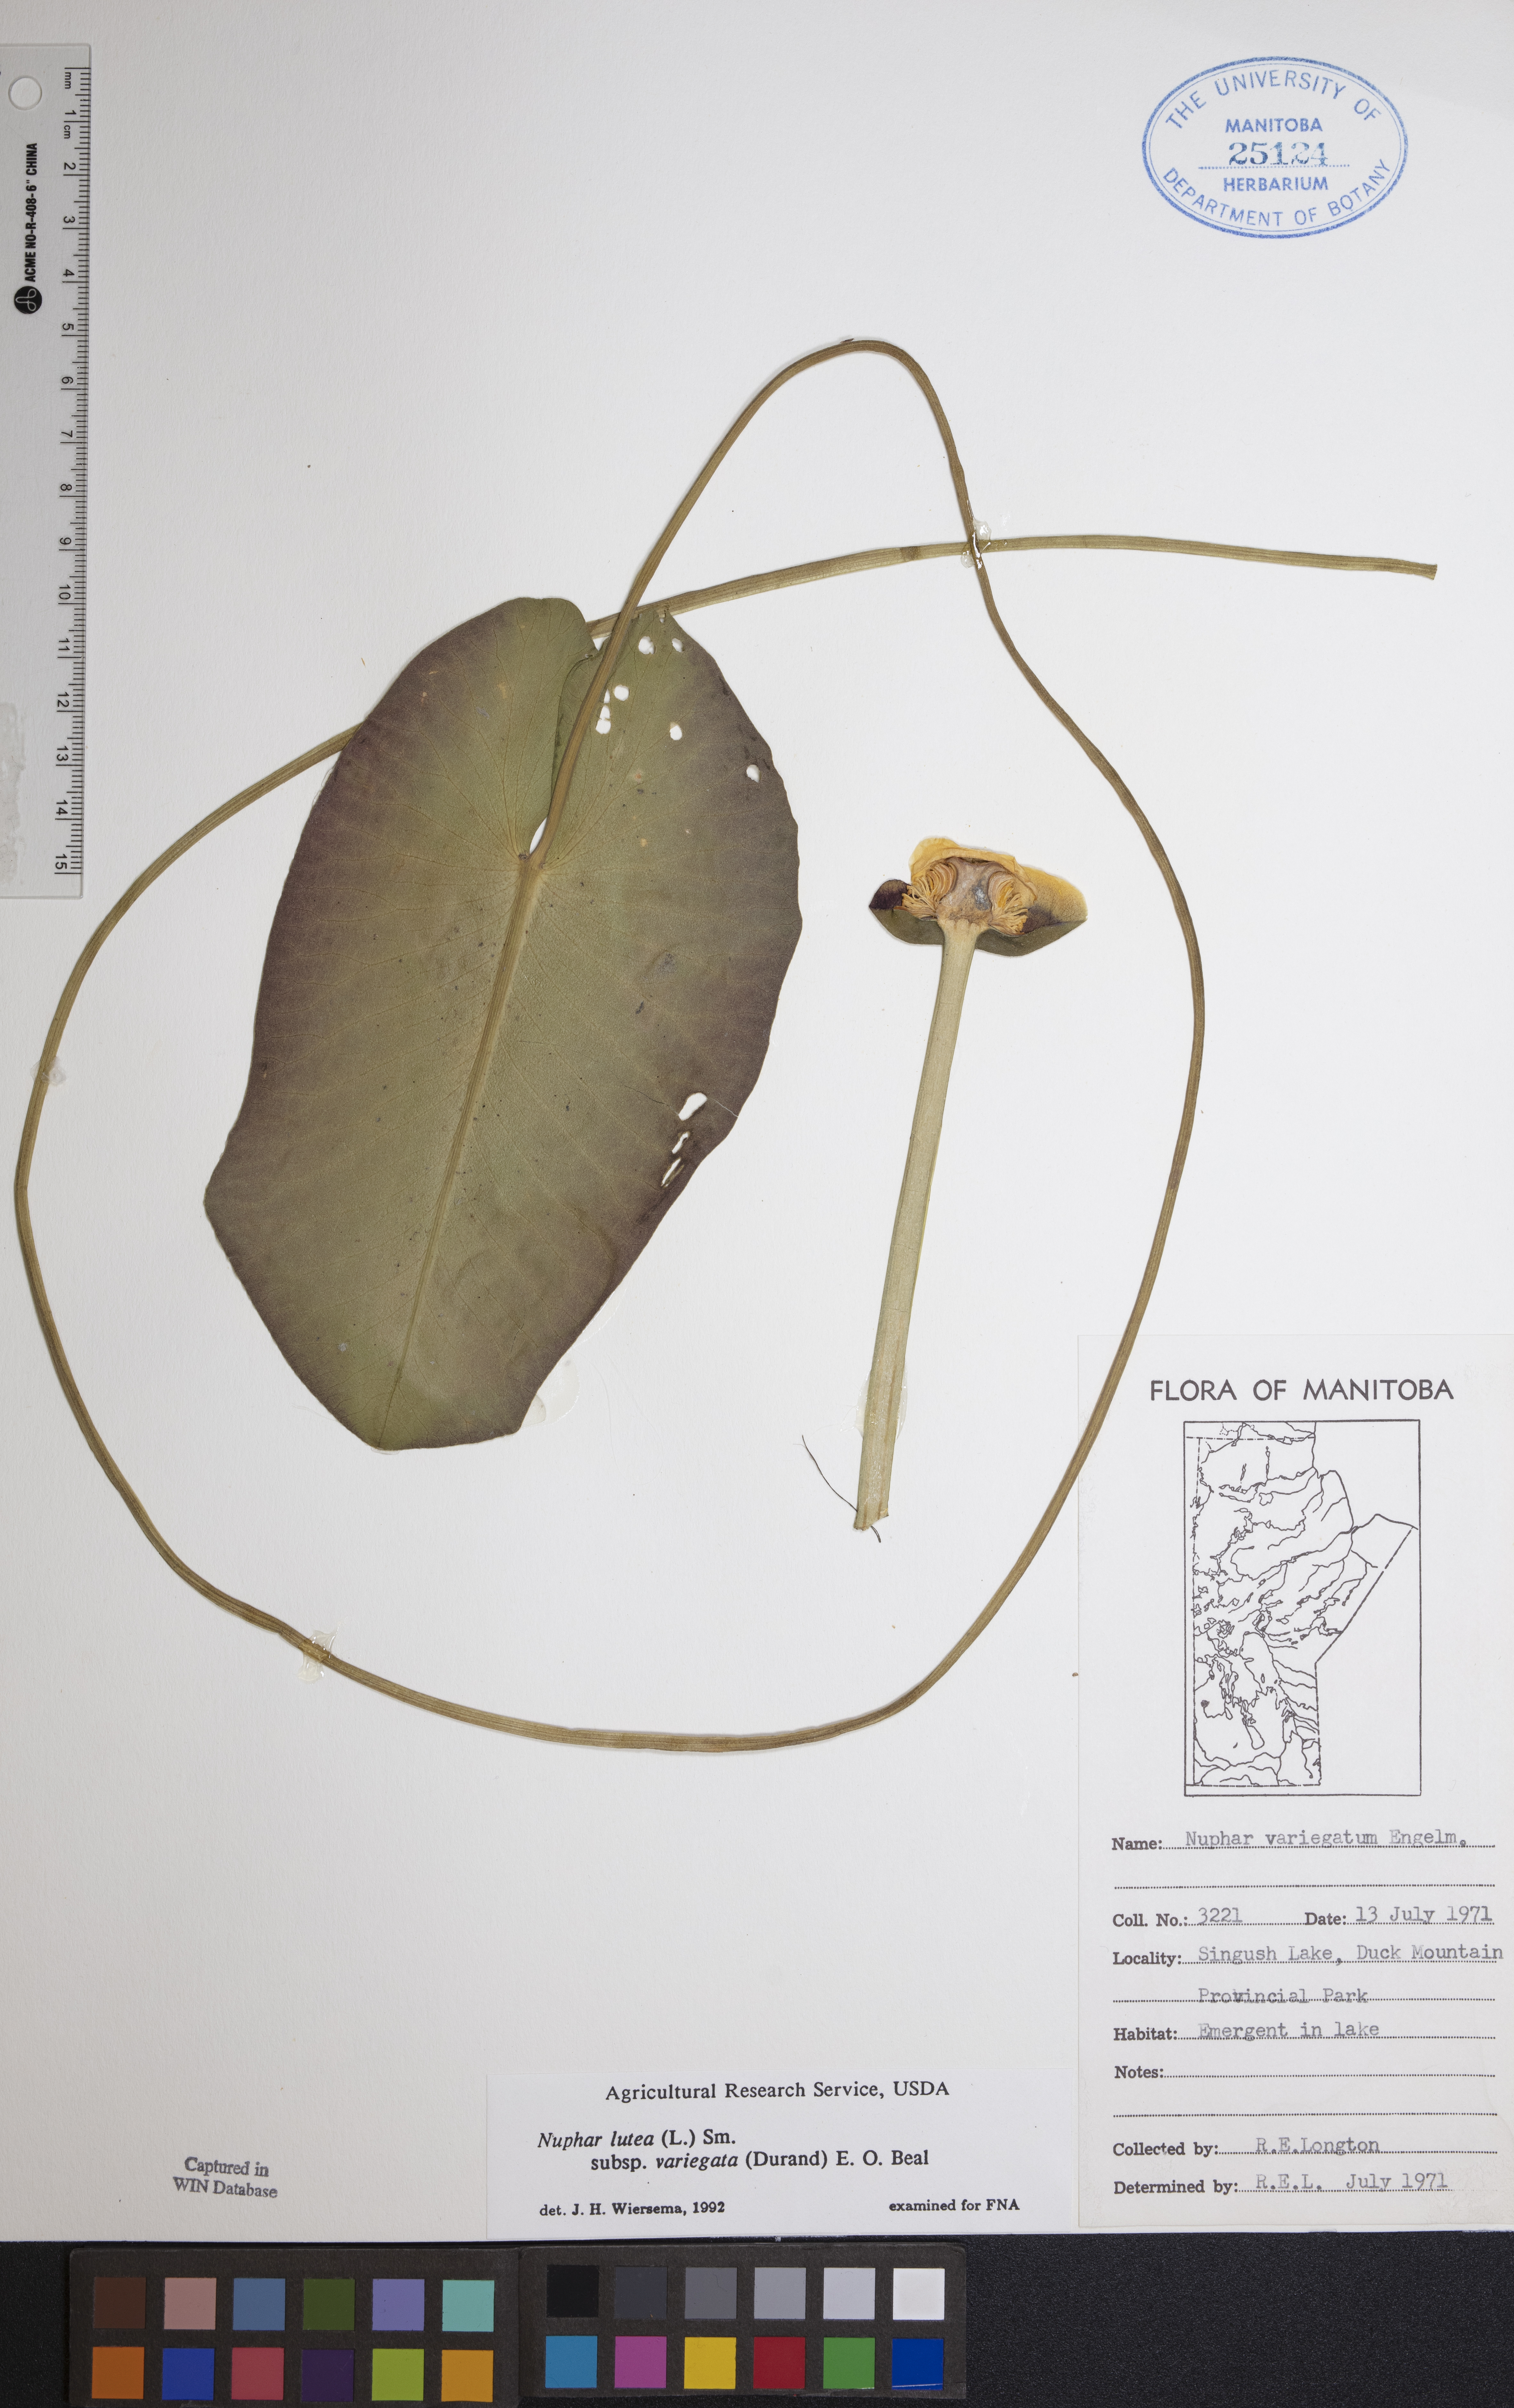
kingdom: Plantae
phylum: Tracheophyta
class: Magnoliopsida
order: Nymphaeales
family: Nymphaeaceae
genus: Nuphar
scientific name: Nuphar variegata
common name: Beaver-root
